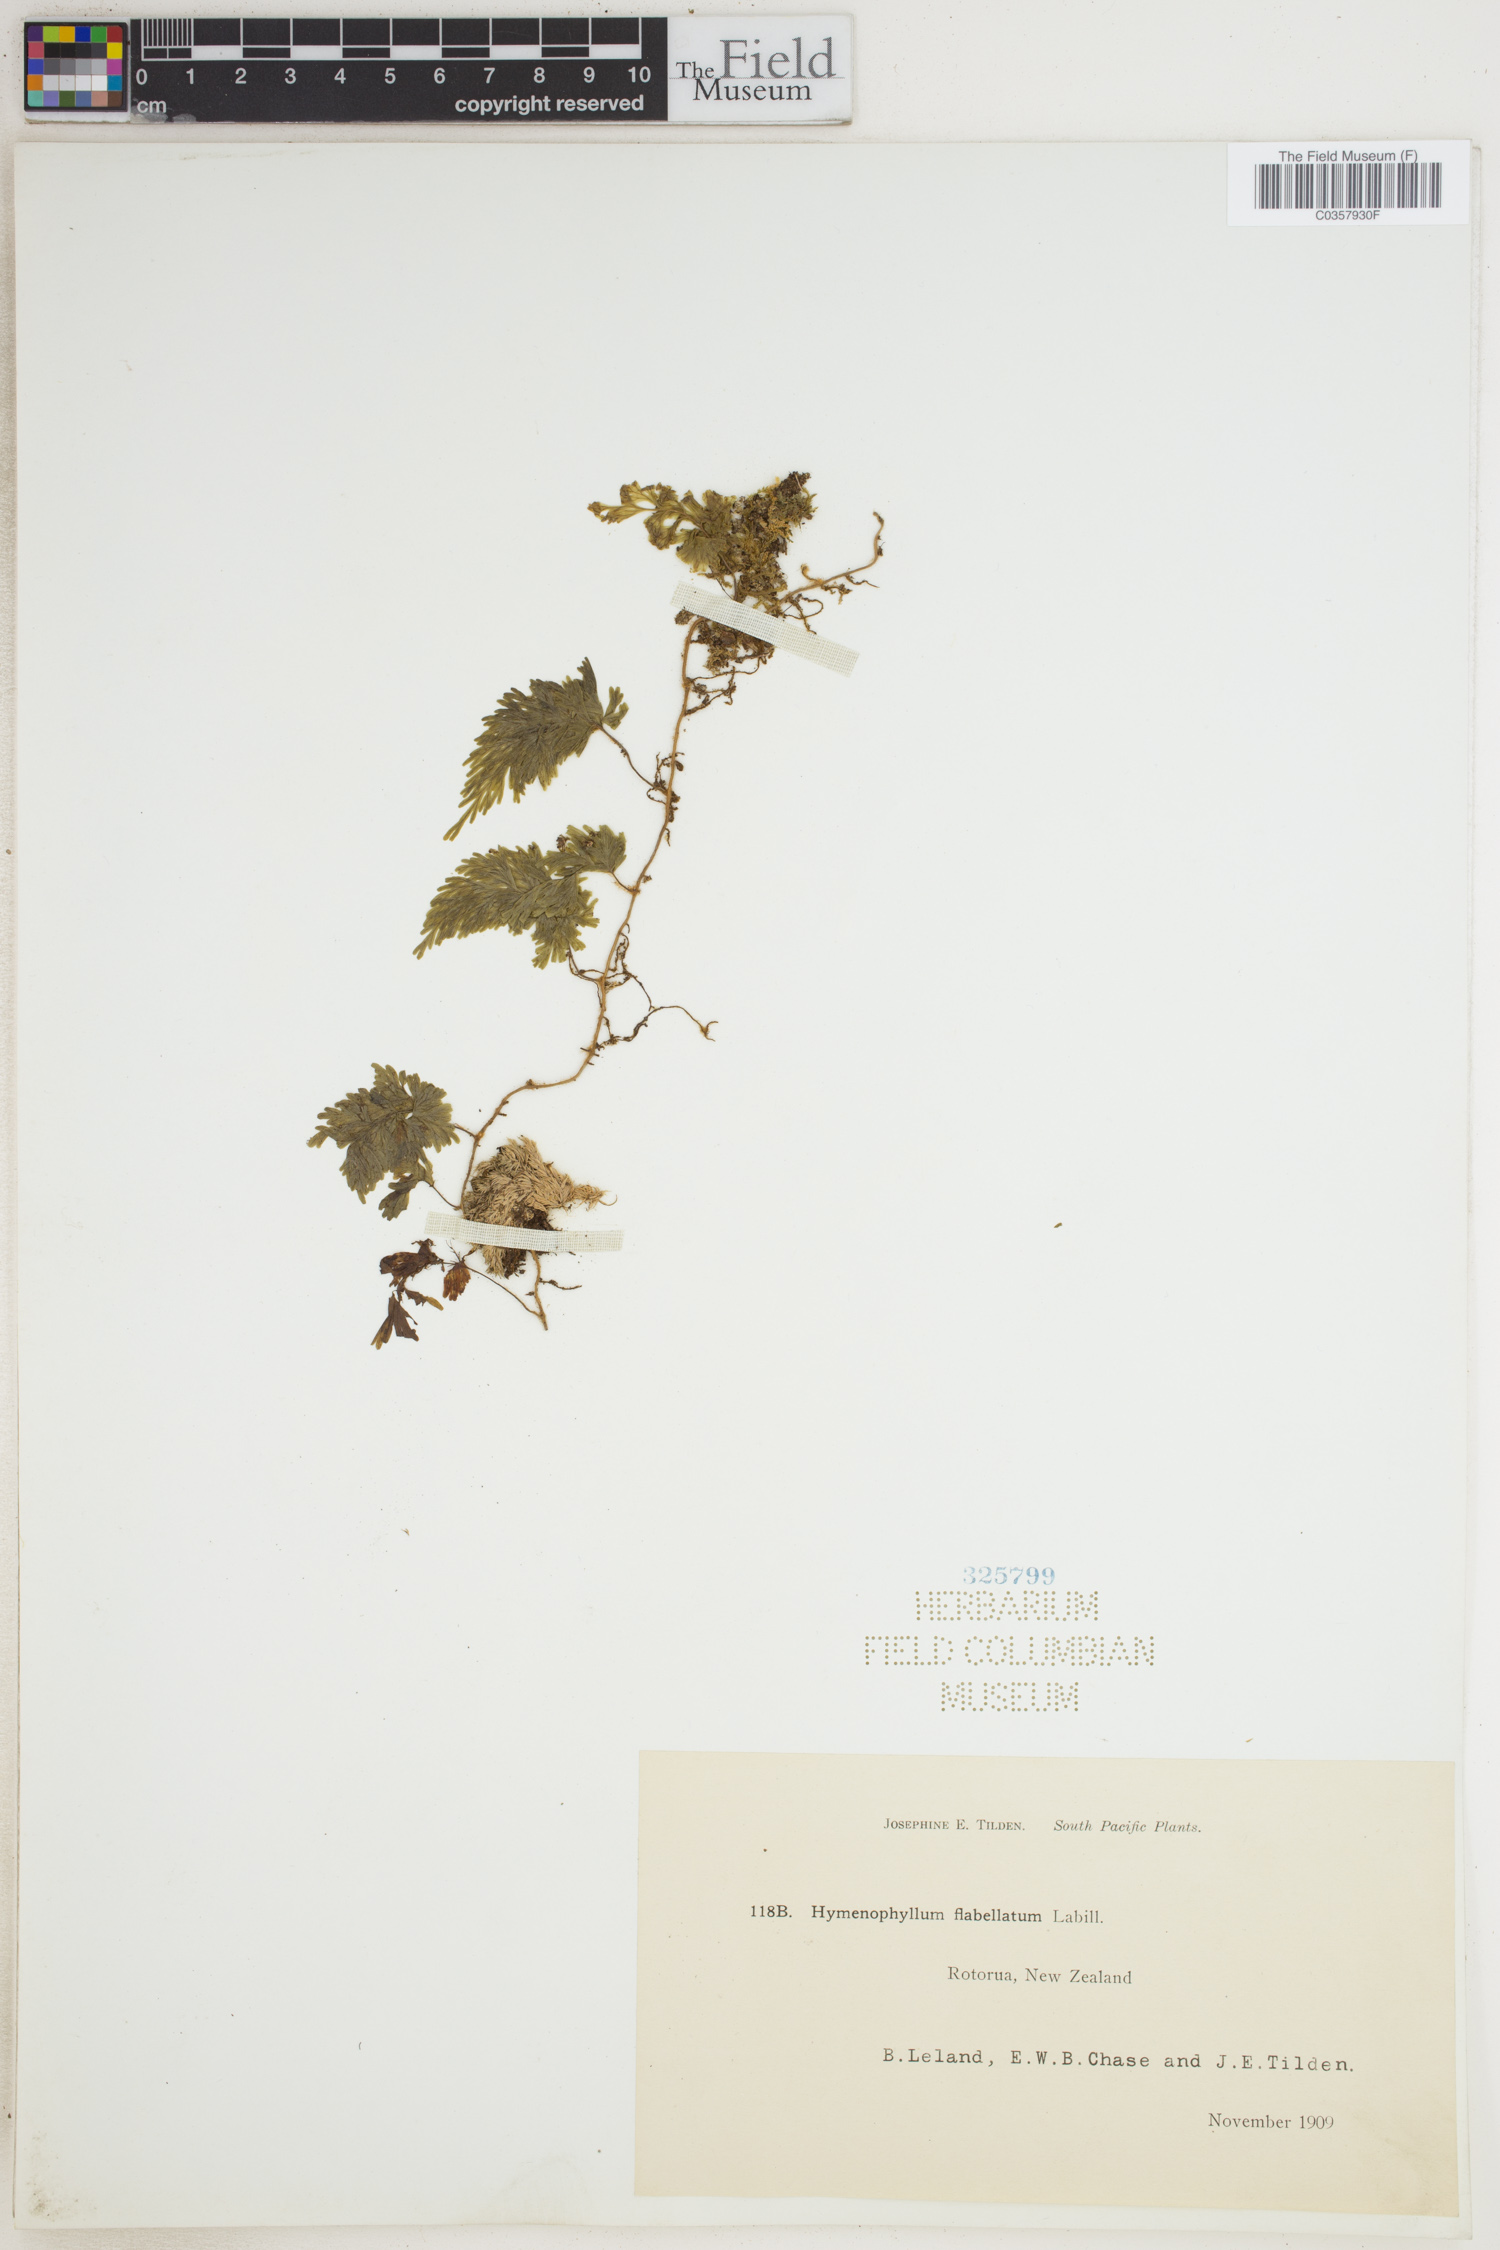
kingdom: Plantae
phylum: Tracheophyta
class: Polypodiopsida
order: Hymenophyllales
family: Hymenophyllaceae
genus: Hymenophyllum
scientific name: Hymenophyllum flabellatum
